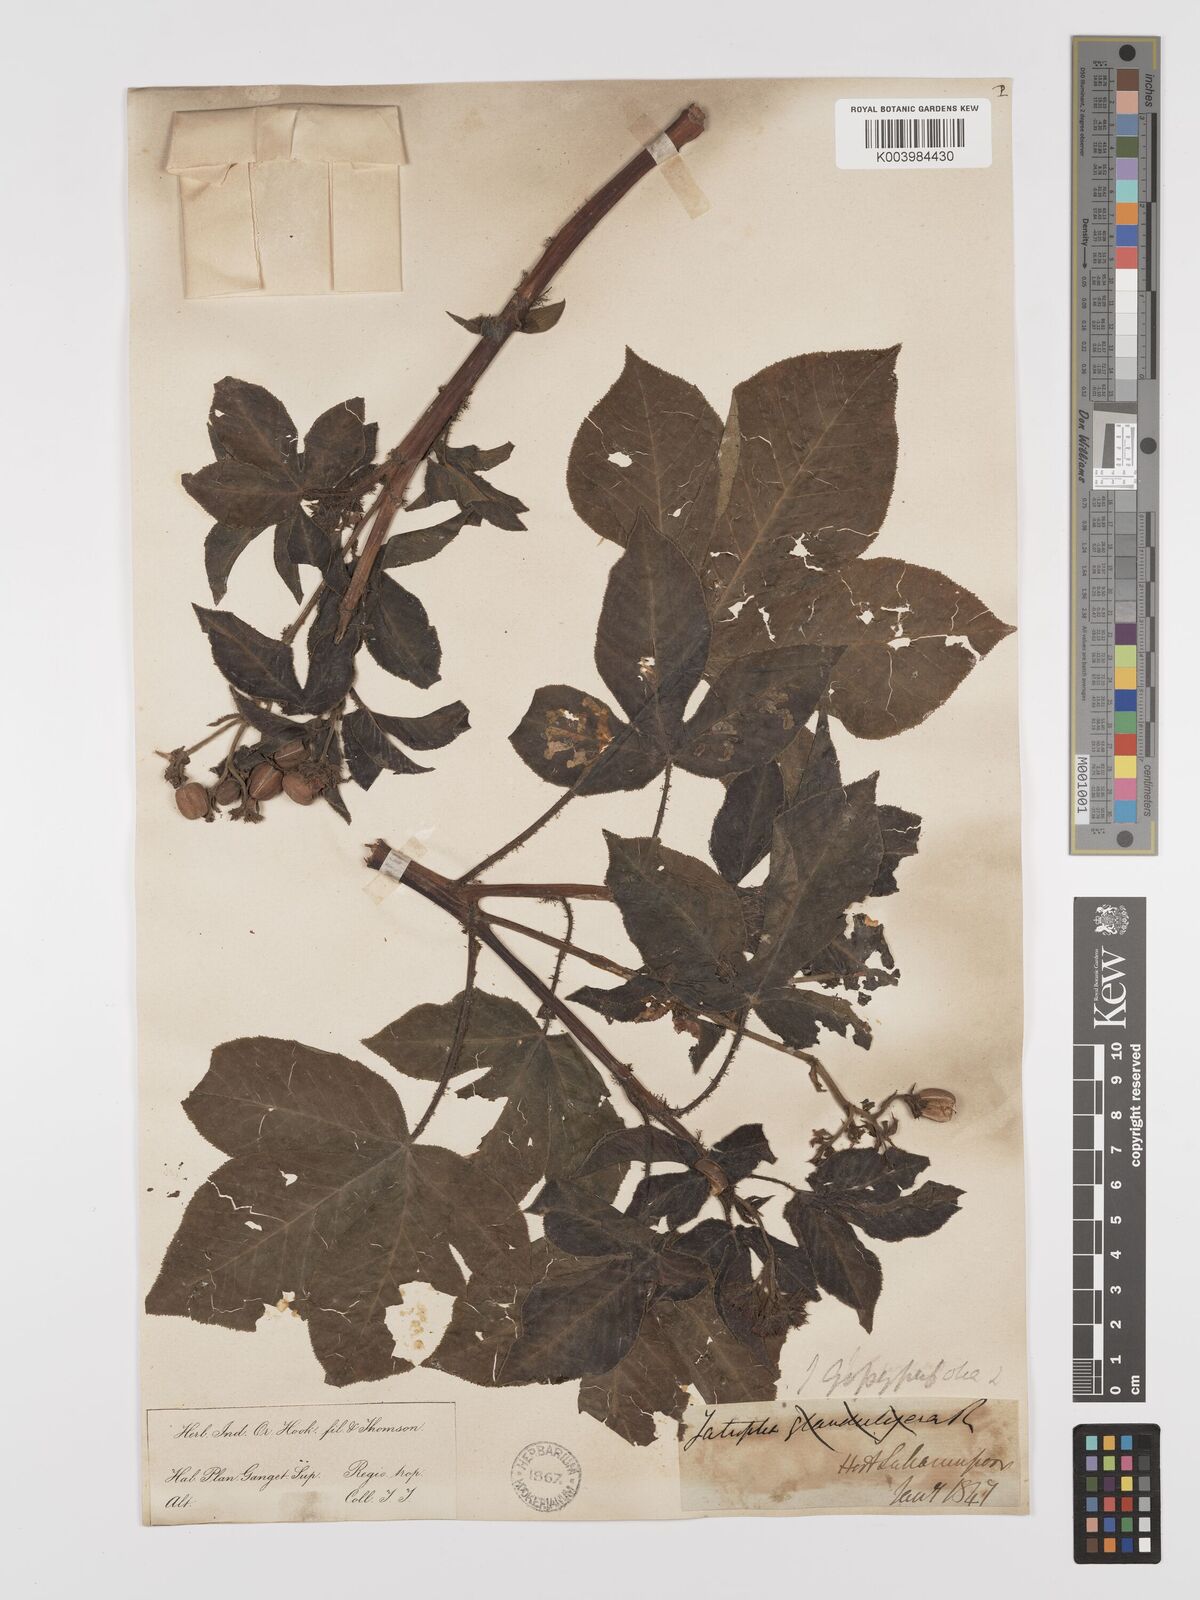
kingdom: Plantae
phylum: Tracheophyta
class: Magnoliopsida
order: Malpighiales
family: Euphorbiaceae
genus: Jatropha
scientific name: Jatropha gossypiifolia
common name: Bellyache bush
